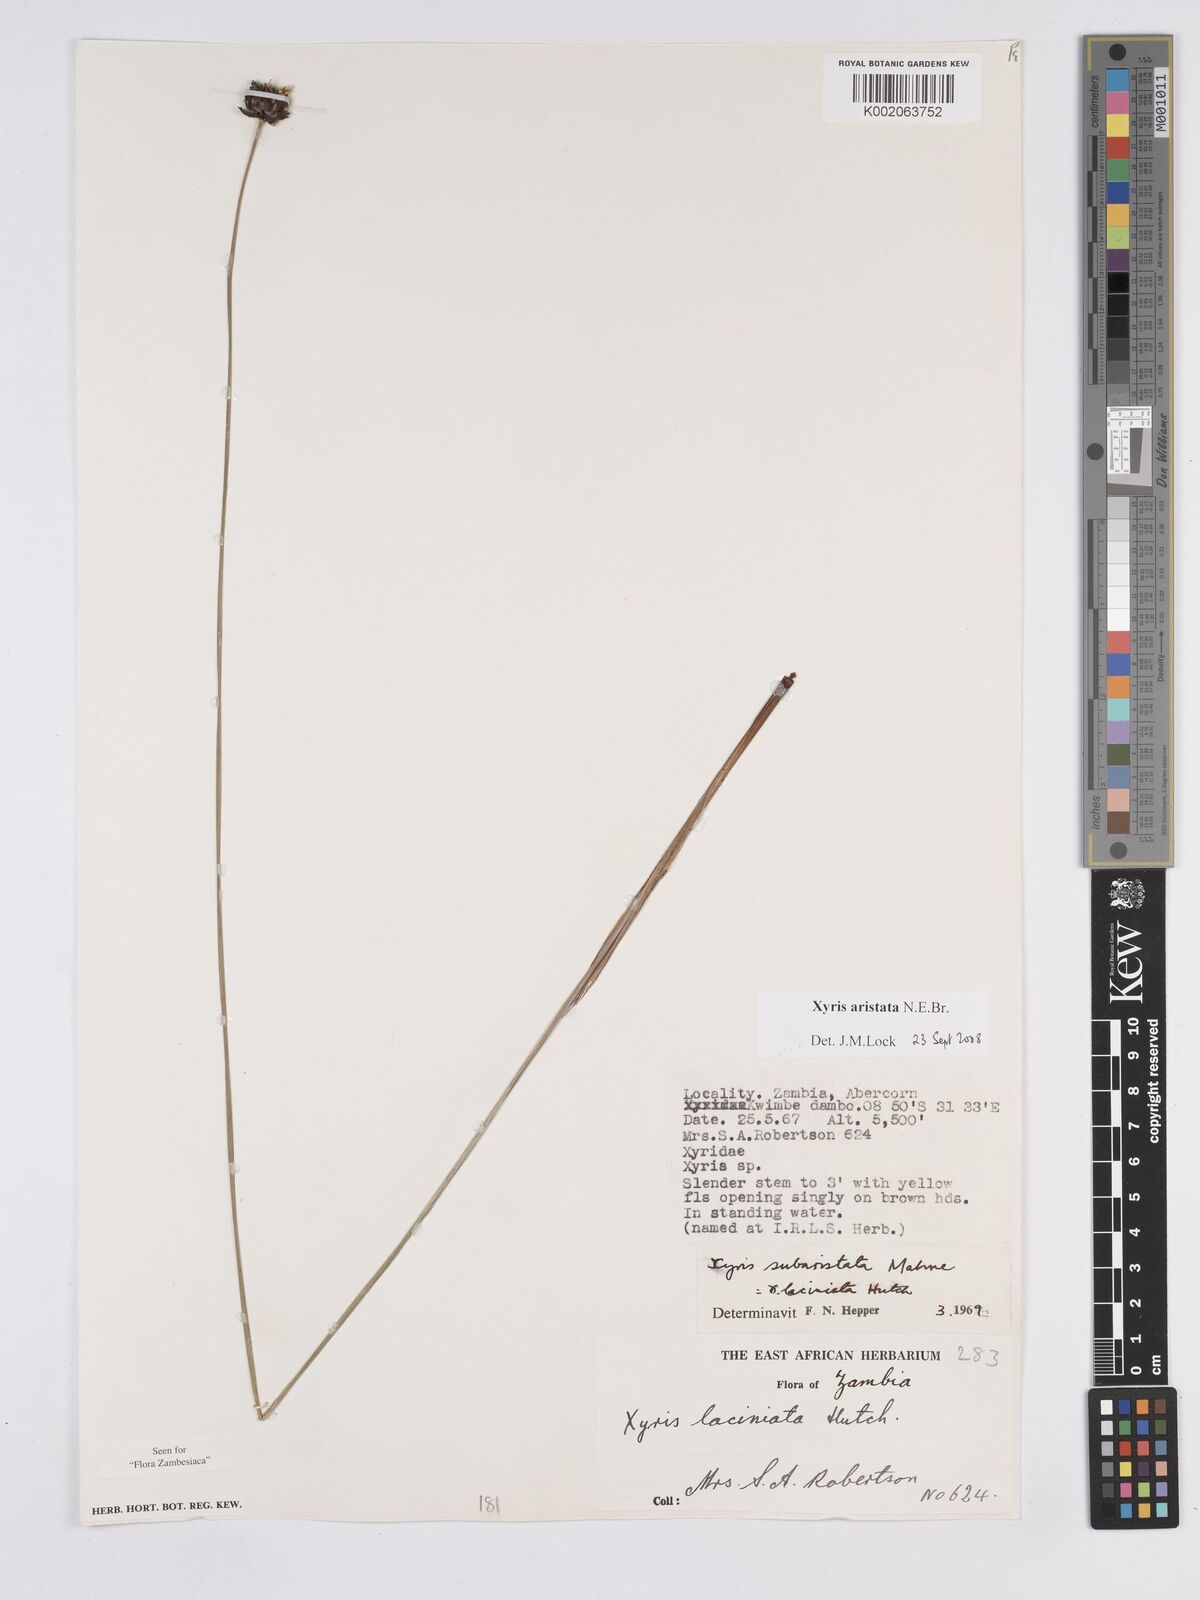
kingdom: Plantae
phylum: Tracheophyta
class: Liliopsida
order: Poales
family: Xyridaceae
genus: Xyris
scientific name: Xyris aristata
